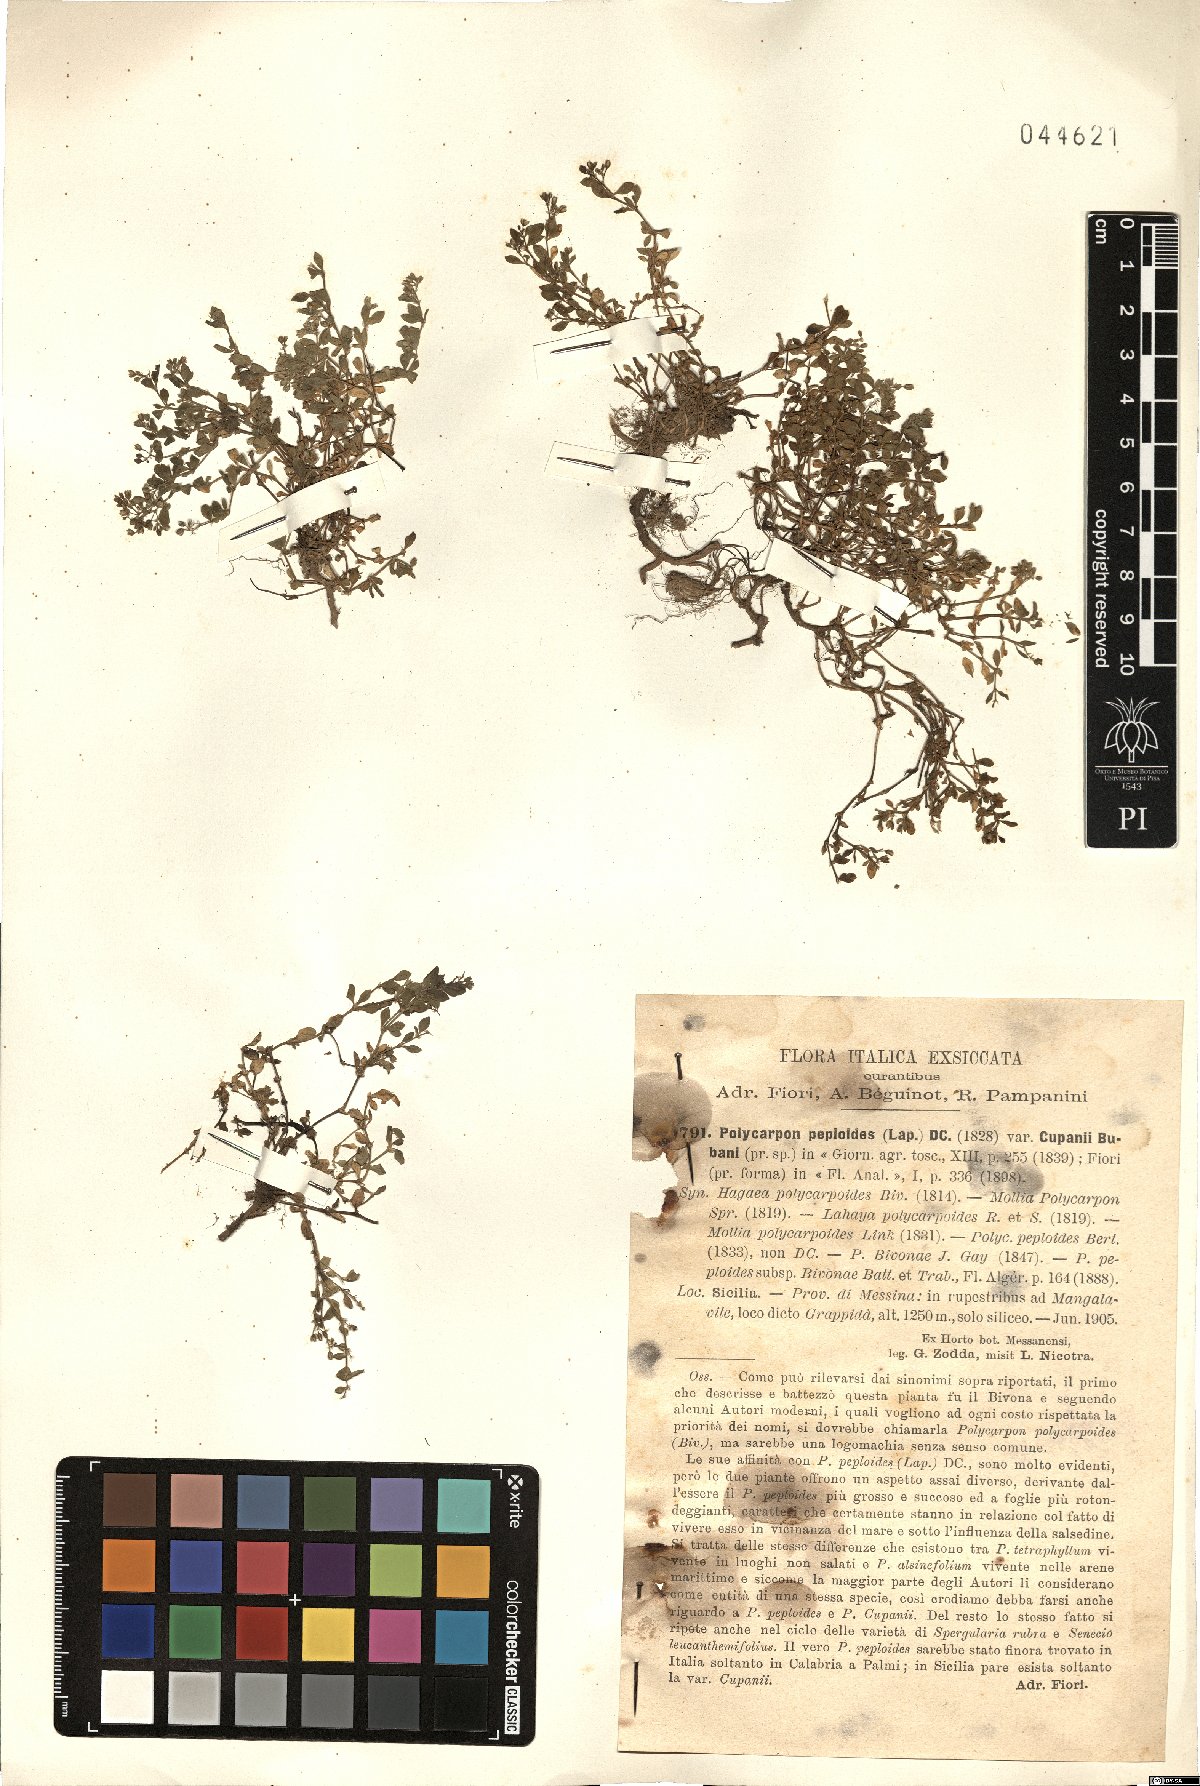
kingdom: Plantae
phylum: Tracheophyta
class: Magnoliopsida
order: Caryophyllales
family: Caryophyllaceae
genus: Polycarpon
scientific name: Polycarpon polycarpoides
